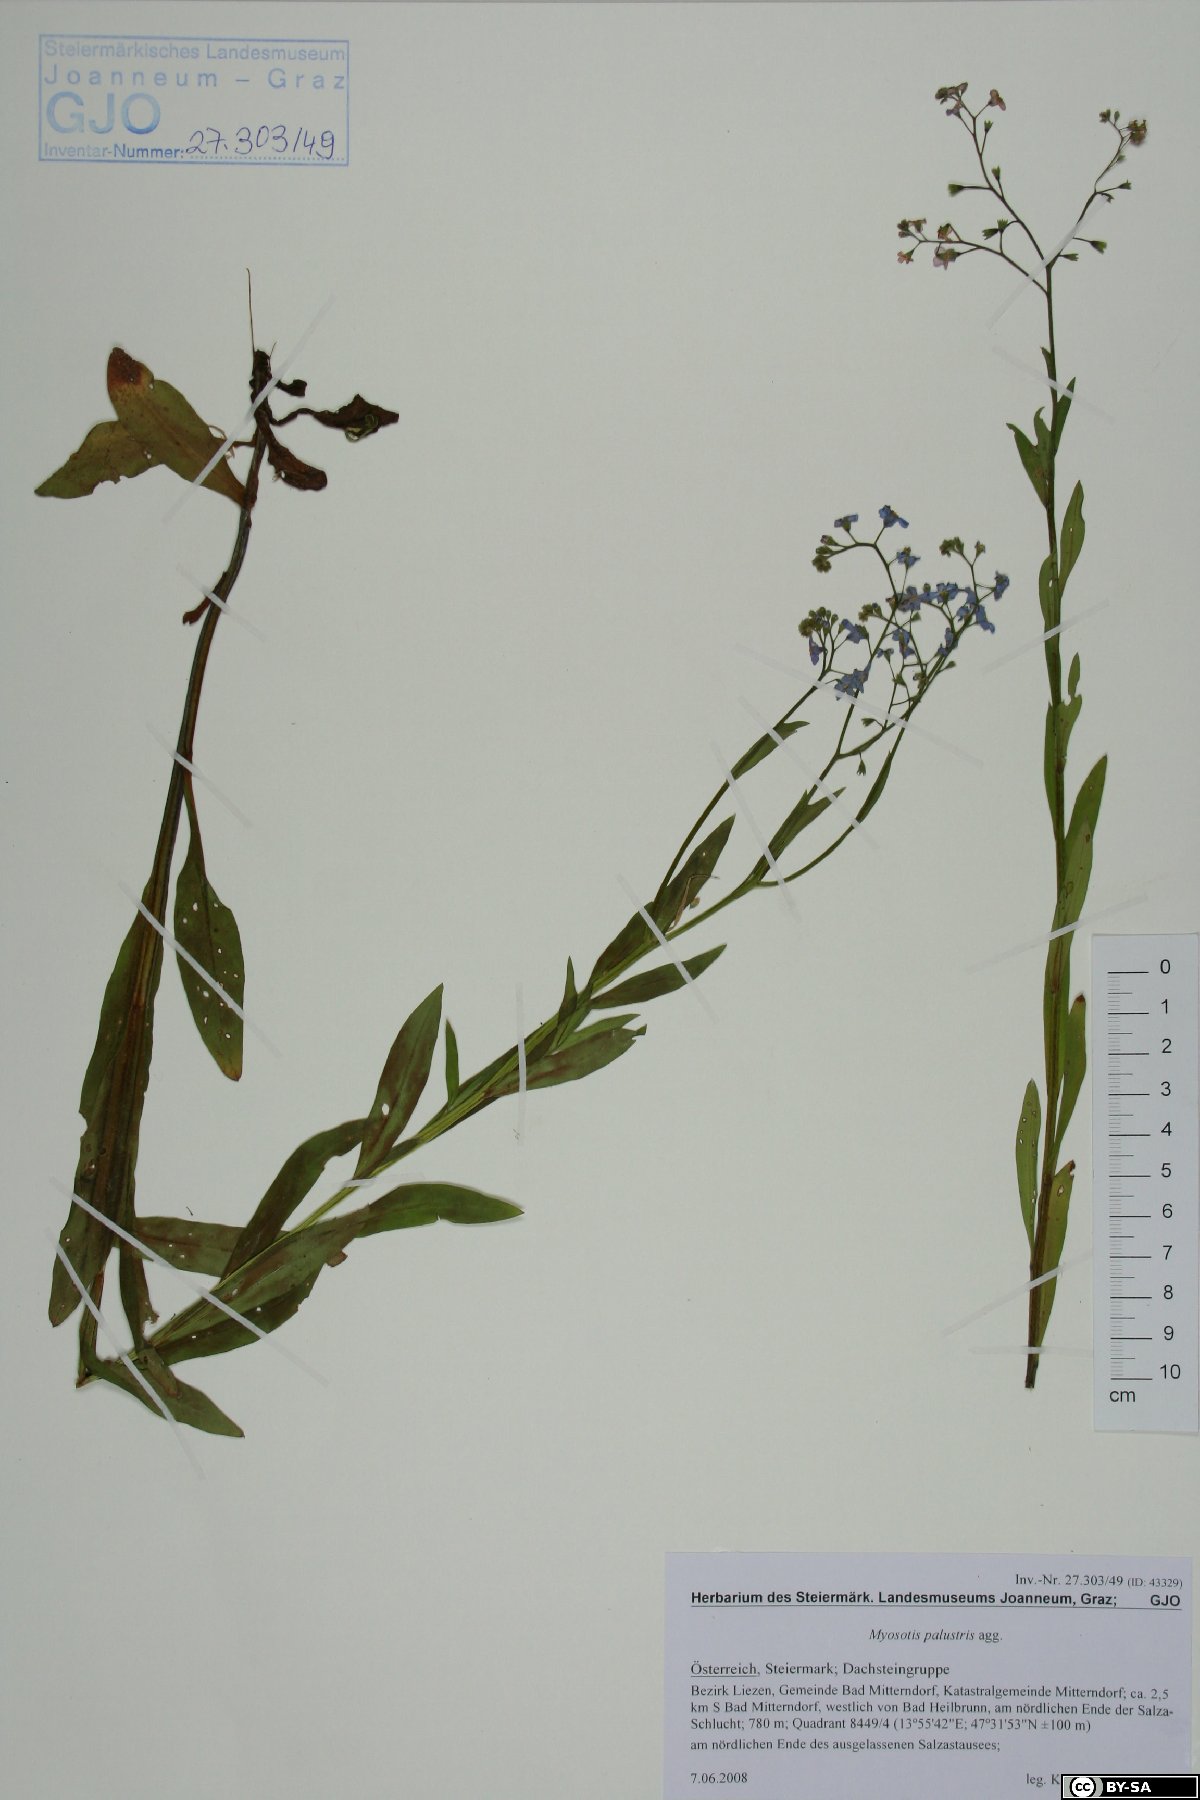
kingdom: Plantae
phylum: Tracheophyta
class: Magnoliopsida
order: Boraginales
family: Boraginaceae
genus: Myosotis
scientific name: Myosotis scorpioides
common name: Water forget-me-not
